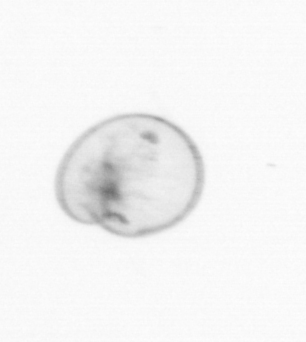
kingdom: Chromista
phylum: Myzozoa
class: Dinophyceae
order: Noctilucales
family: Noctilucaceae
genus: Noctiluca
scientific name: Noctiluca scintillans
